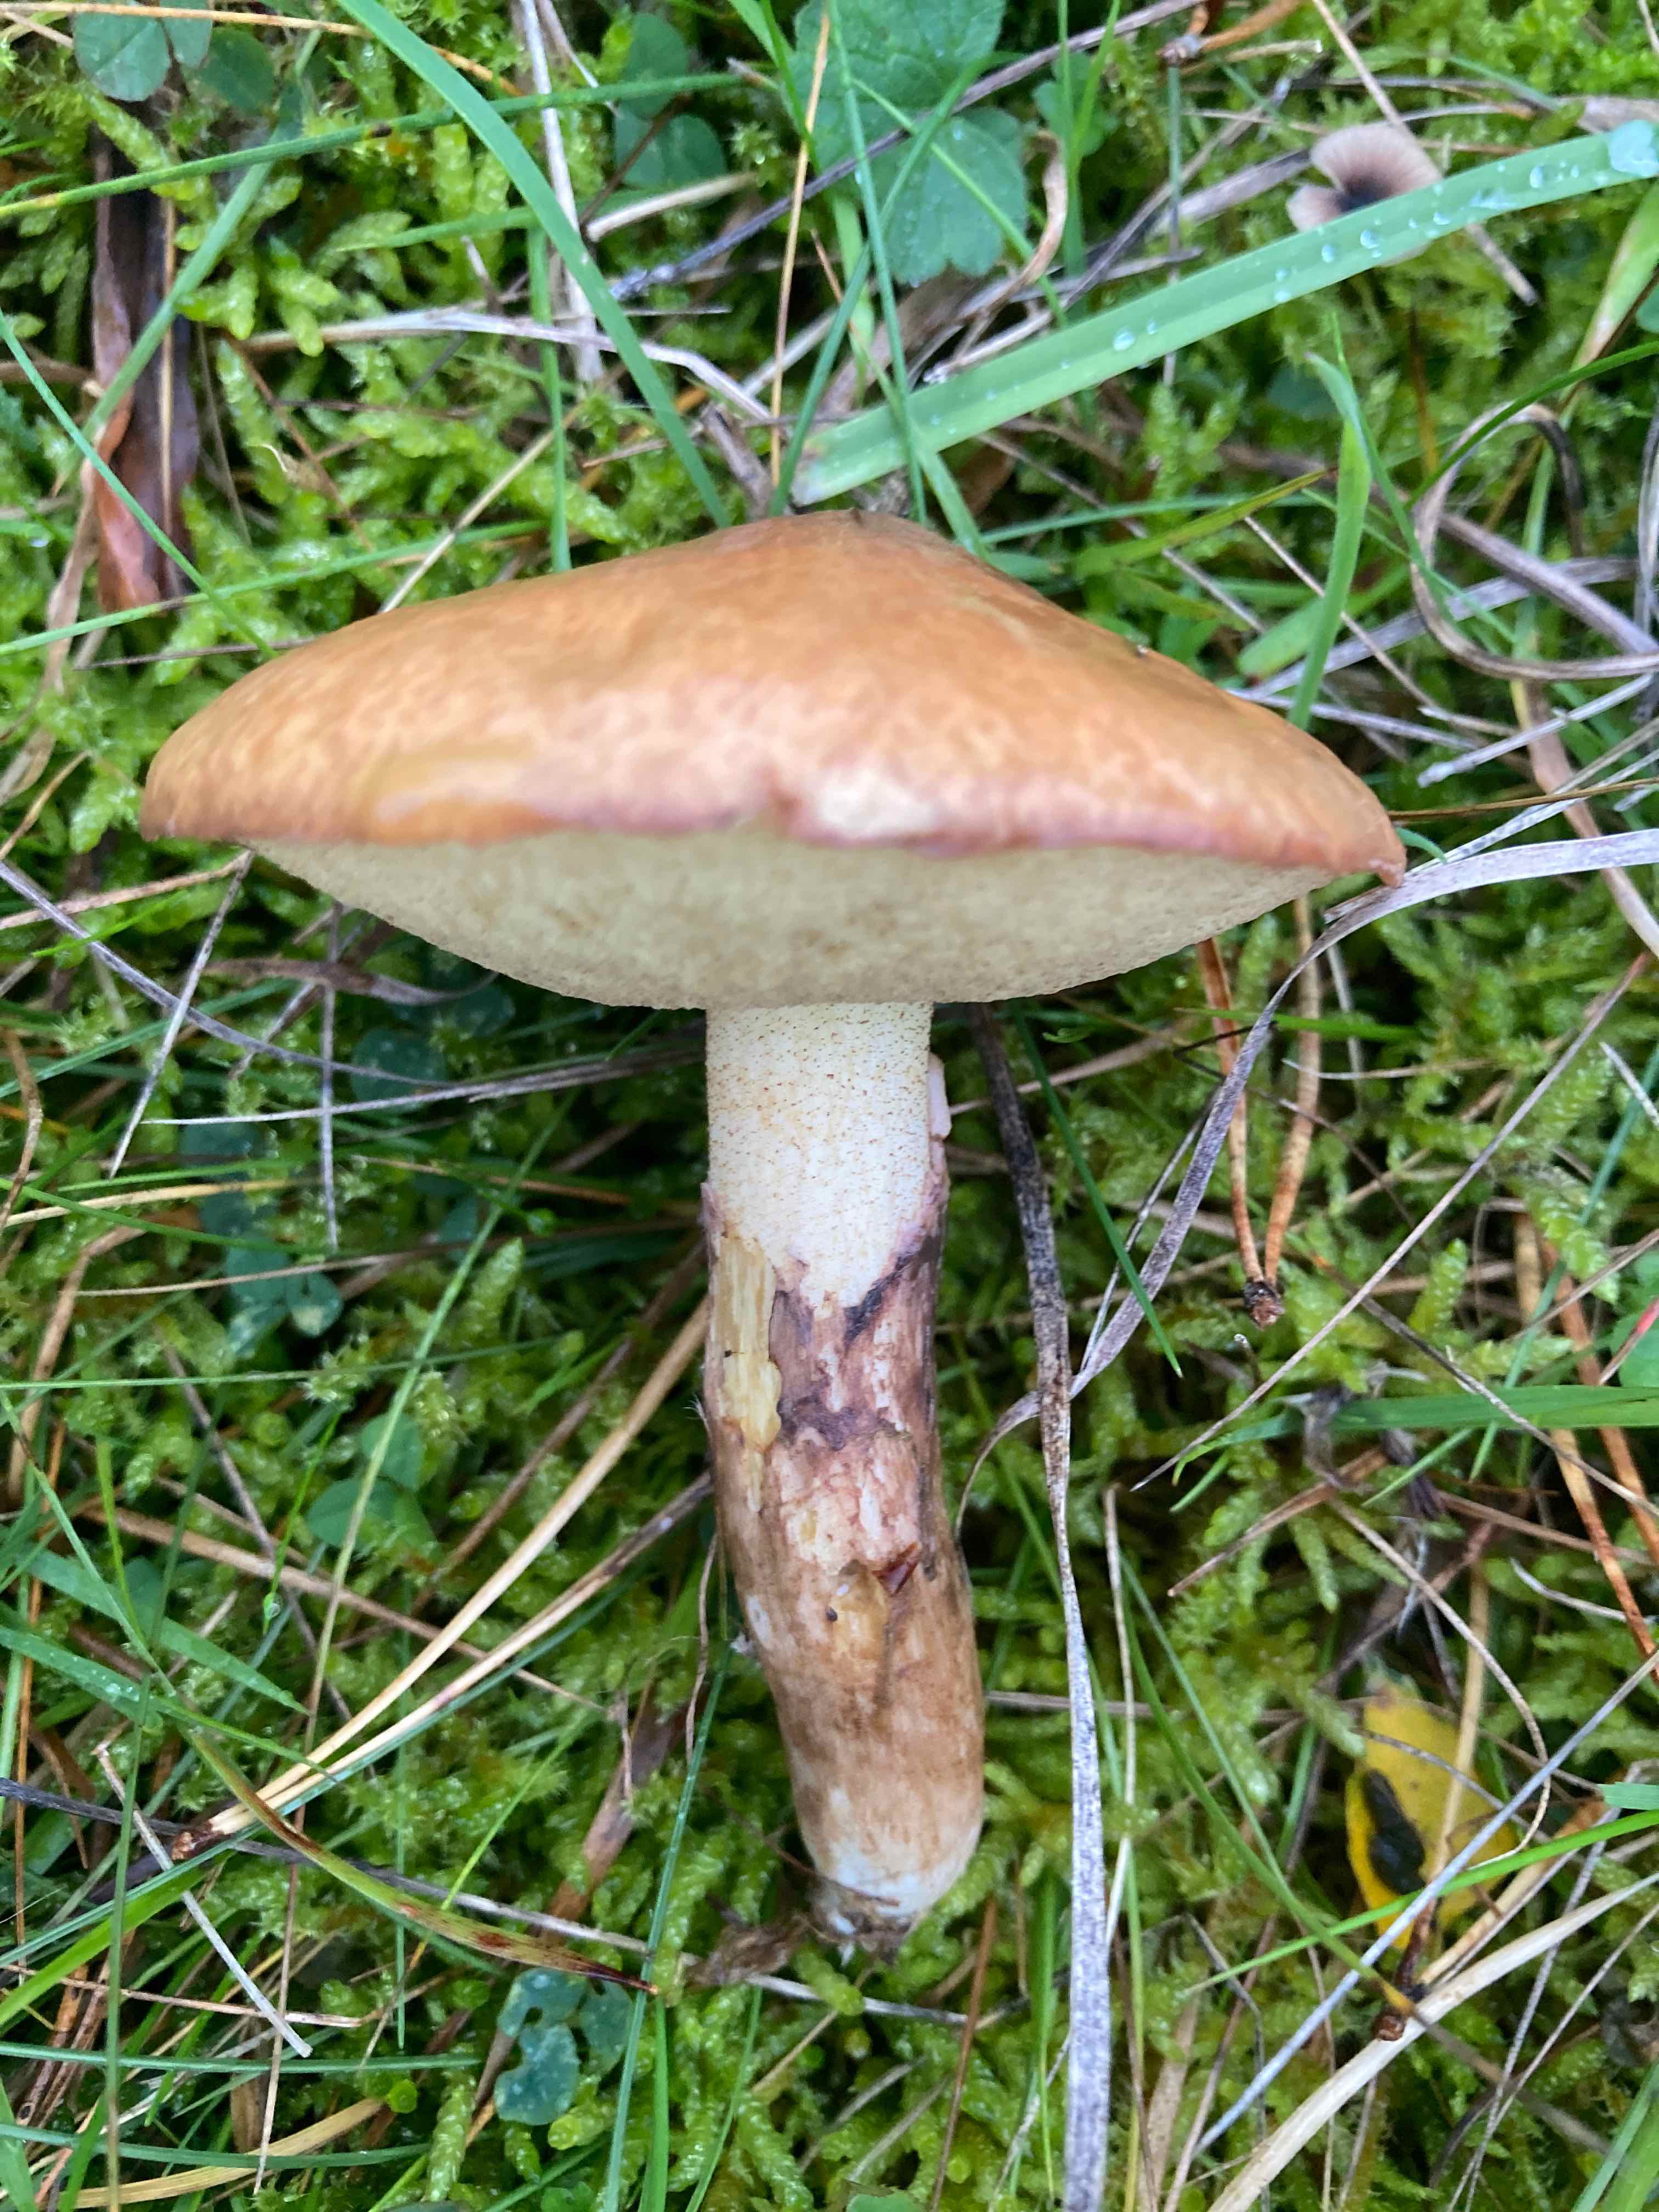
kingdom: Fungi
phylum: Basidiomycota
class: Agaricomycetes
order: Boletales
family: Suillaceae
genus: Suillus
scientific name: Suillus luteus
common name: brungul slimrørhat
